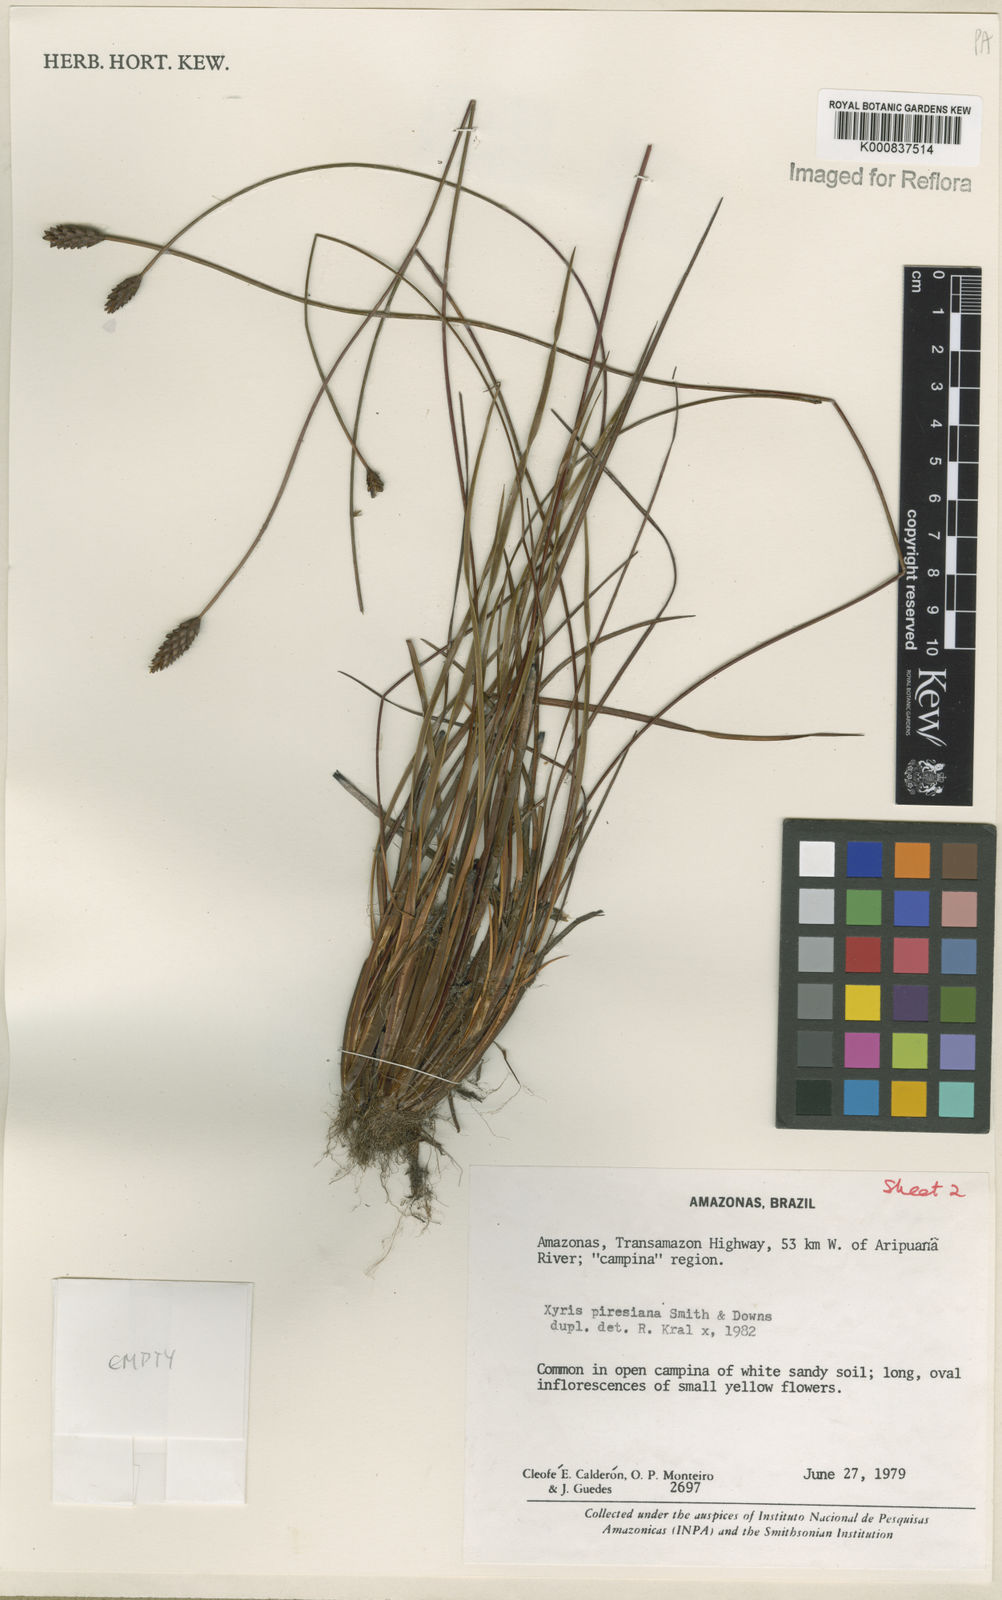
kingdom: Plantae
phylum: Tracheophyta
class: Liliopsida
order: Poales
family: Xyridaceae
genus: Xyris
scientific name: Xyris piresiana
